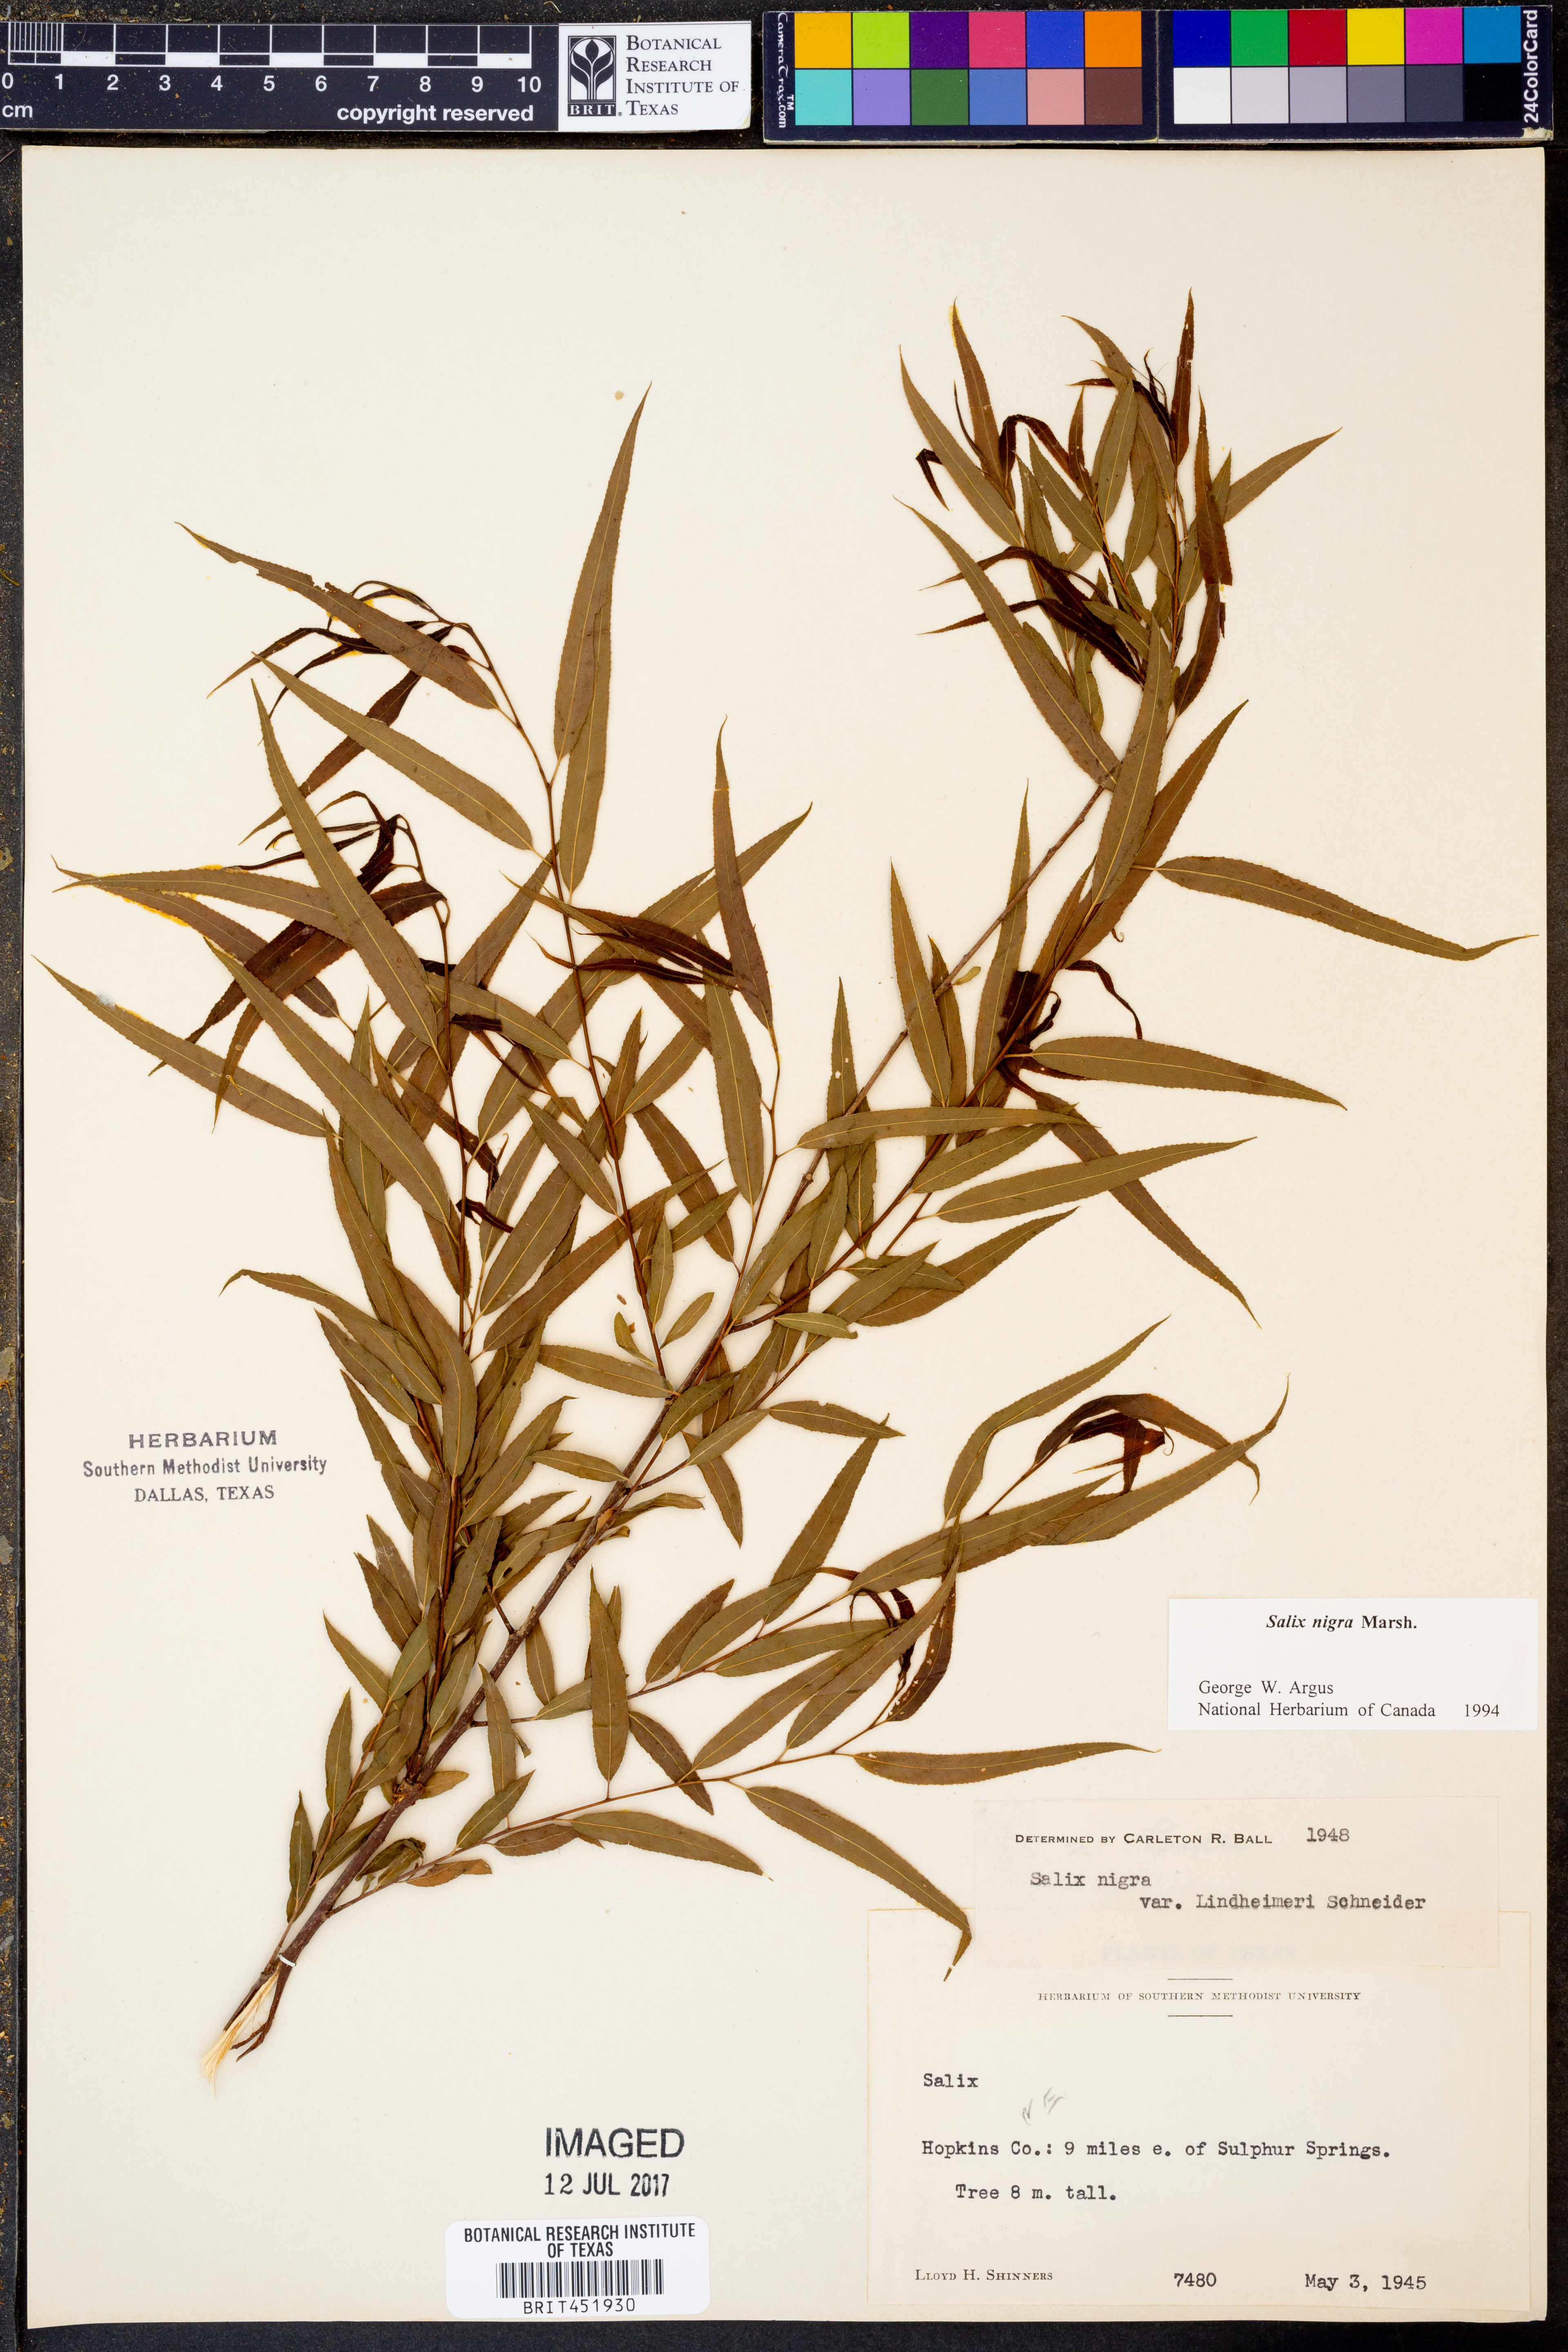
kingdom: Plantae
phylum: Tracheophyta
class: Magnoliopsida
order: Malpighiales
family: Salicaceae
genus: Salix
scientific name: Salix nigra
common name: Black willow
